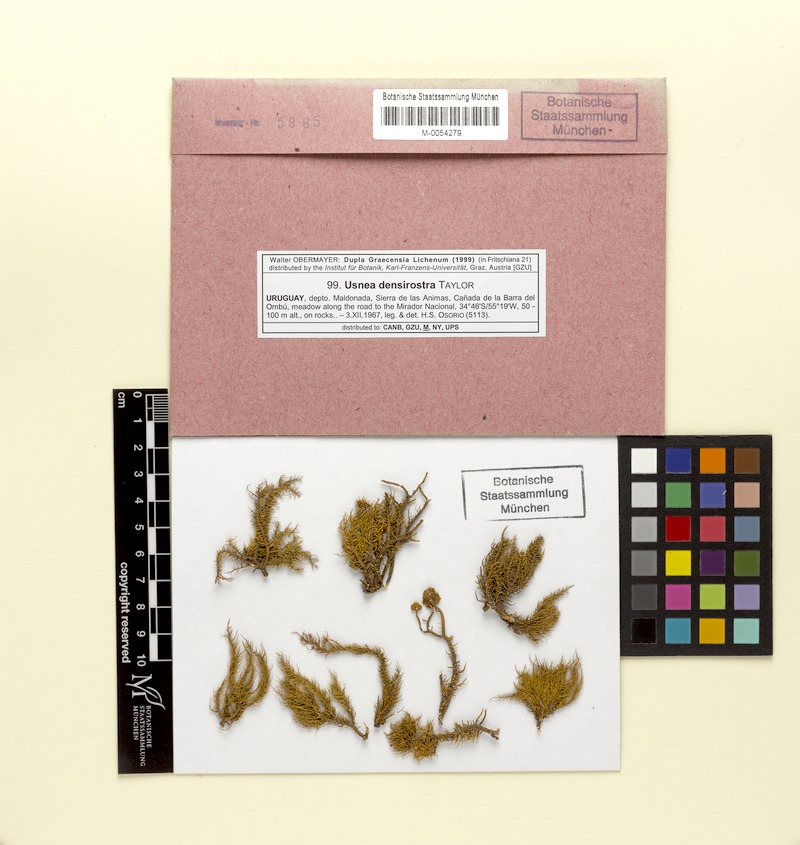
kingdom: Fungi
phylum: Ascomycota
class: Lecanoromycetes
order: Lecanorales
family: Parmeliaceae
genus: Usnea
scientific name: Usnea densirostra
